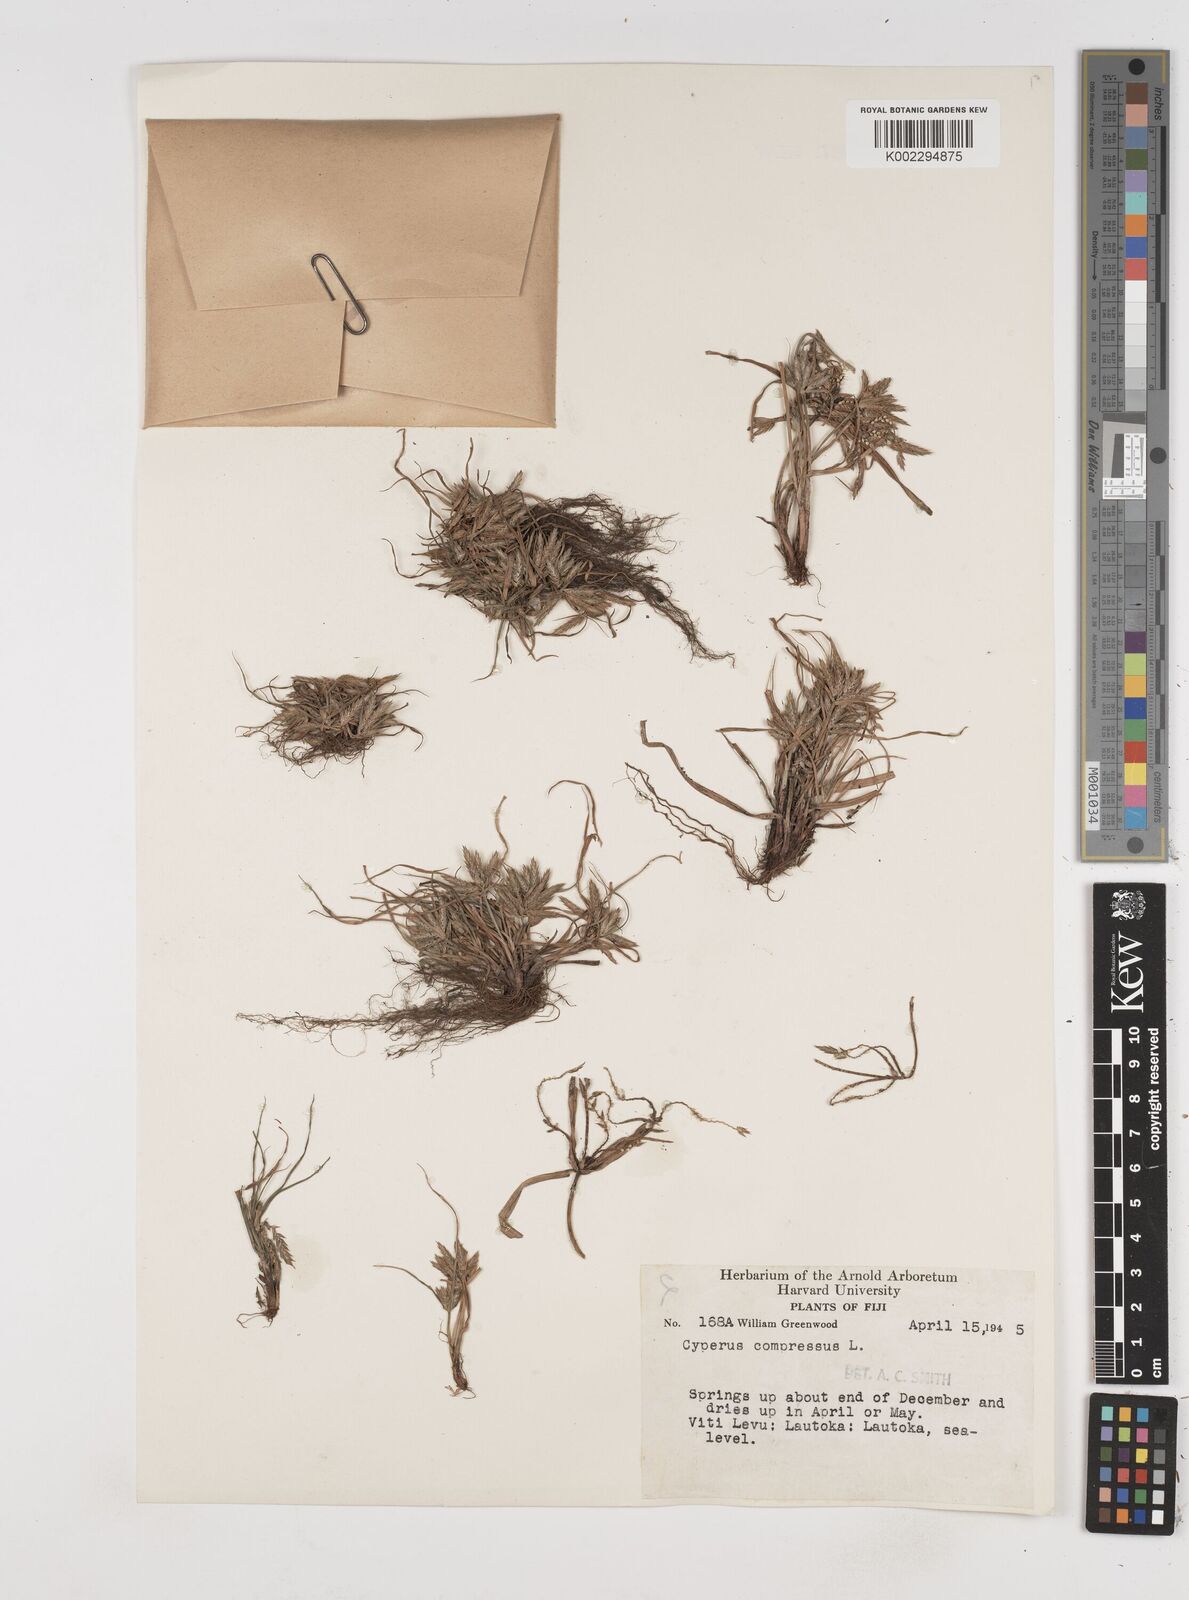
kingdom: Plantae
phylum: Tracheophyta
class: Liliopsida
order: Poales
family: Cyperaceae
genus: Cyperus
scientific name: Cyperus compressus
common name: Poorland flatsedge
